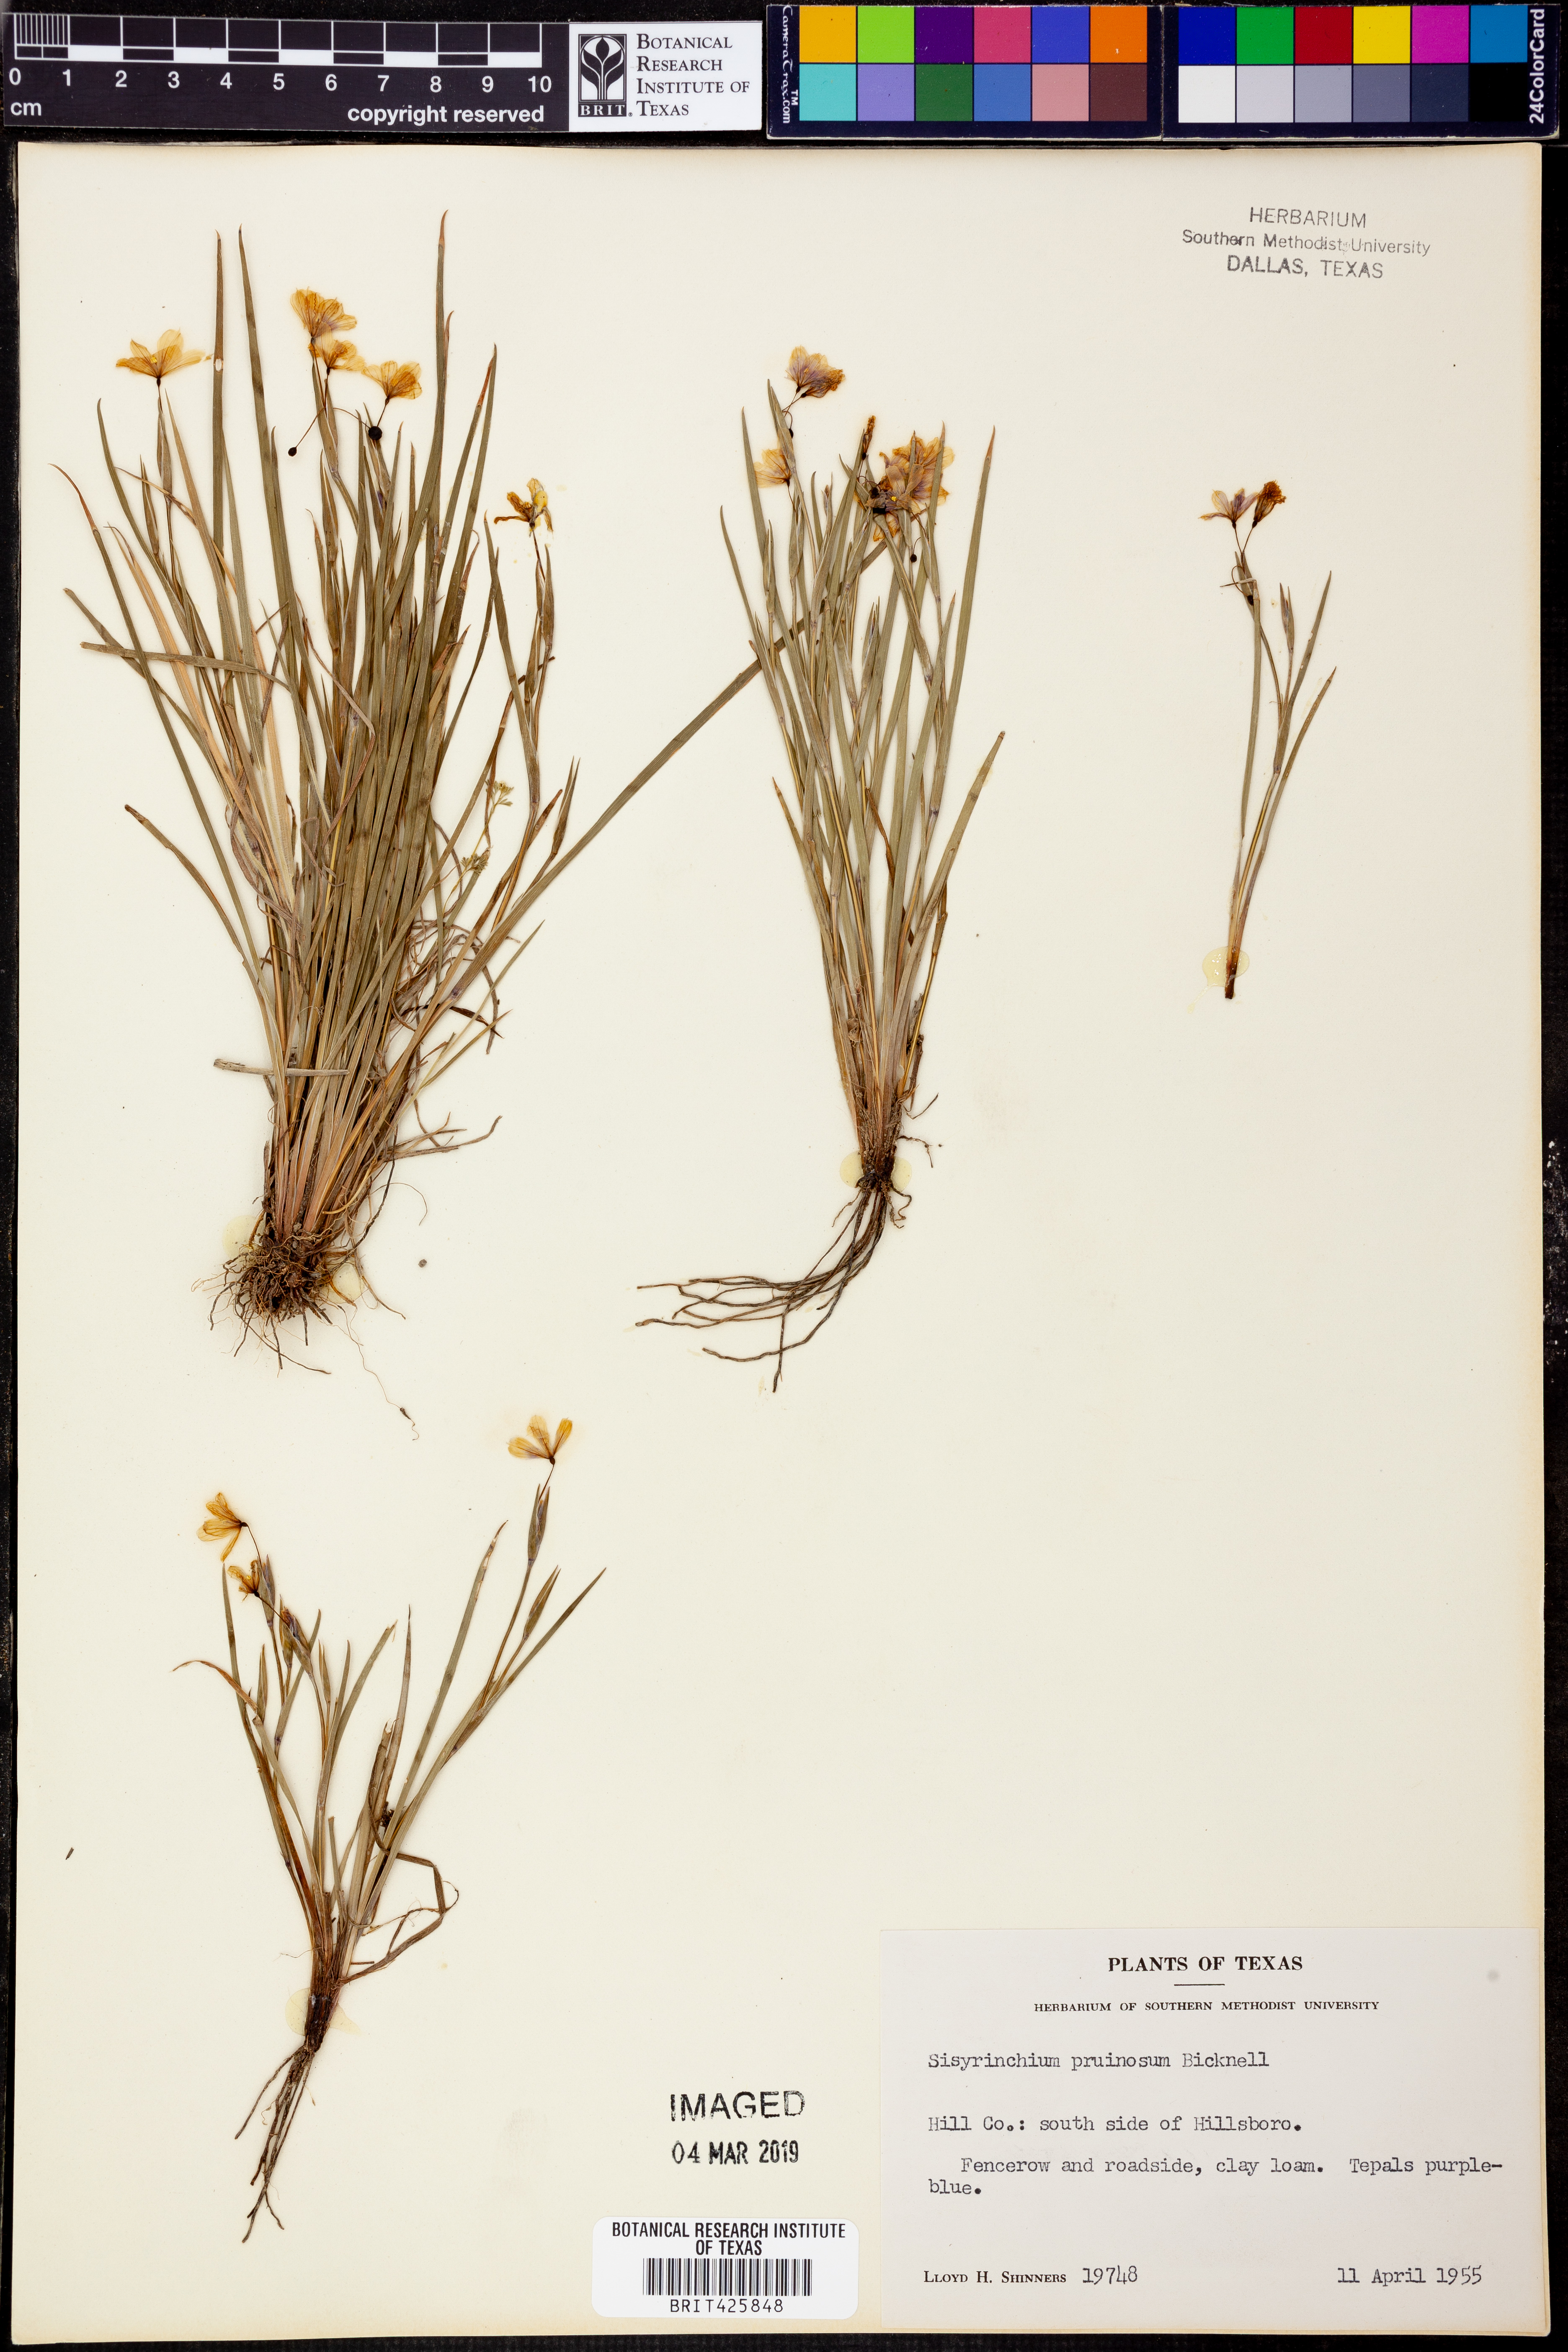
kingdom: Plantae
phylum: Tracheophyta
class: Liliopsida
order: Asparagales
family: Iridaceae
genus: Sisyrinchium
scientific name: Sisyrinchium pruinosum
